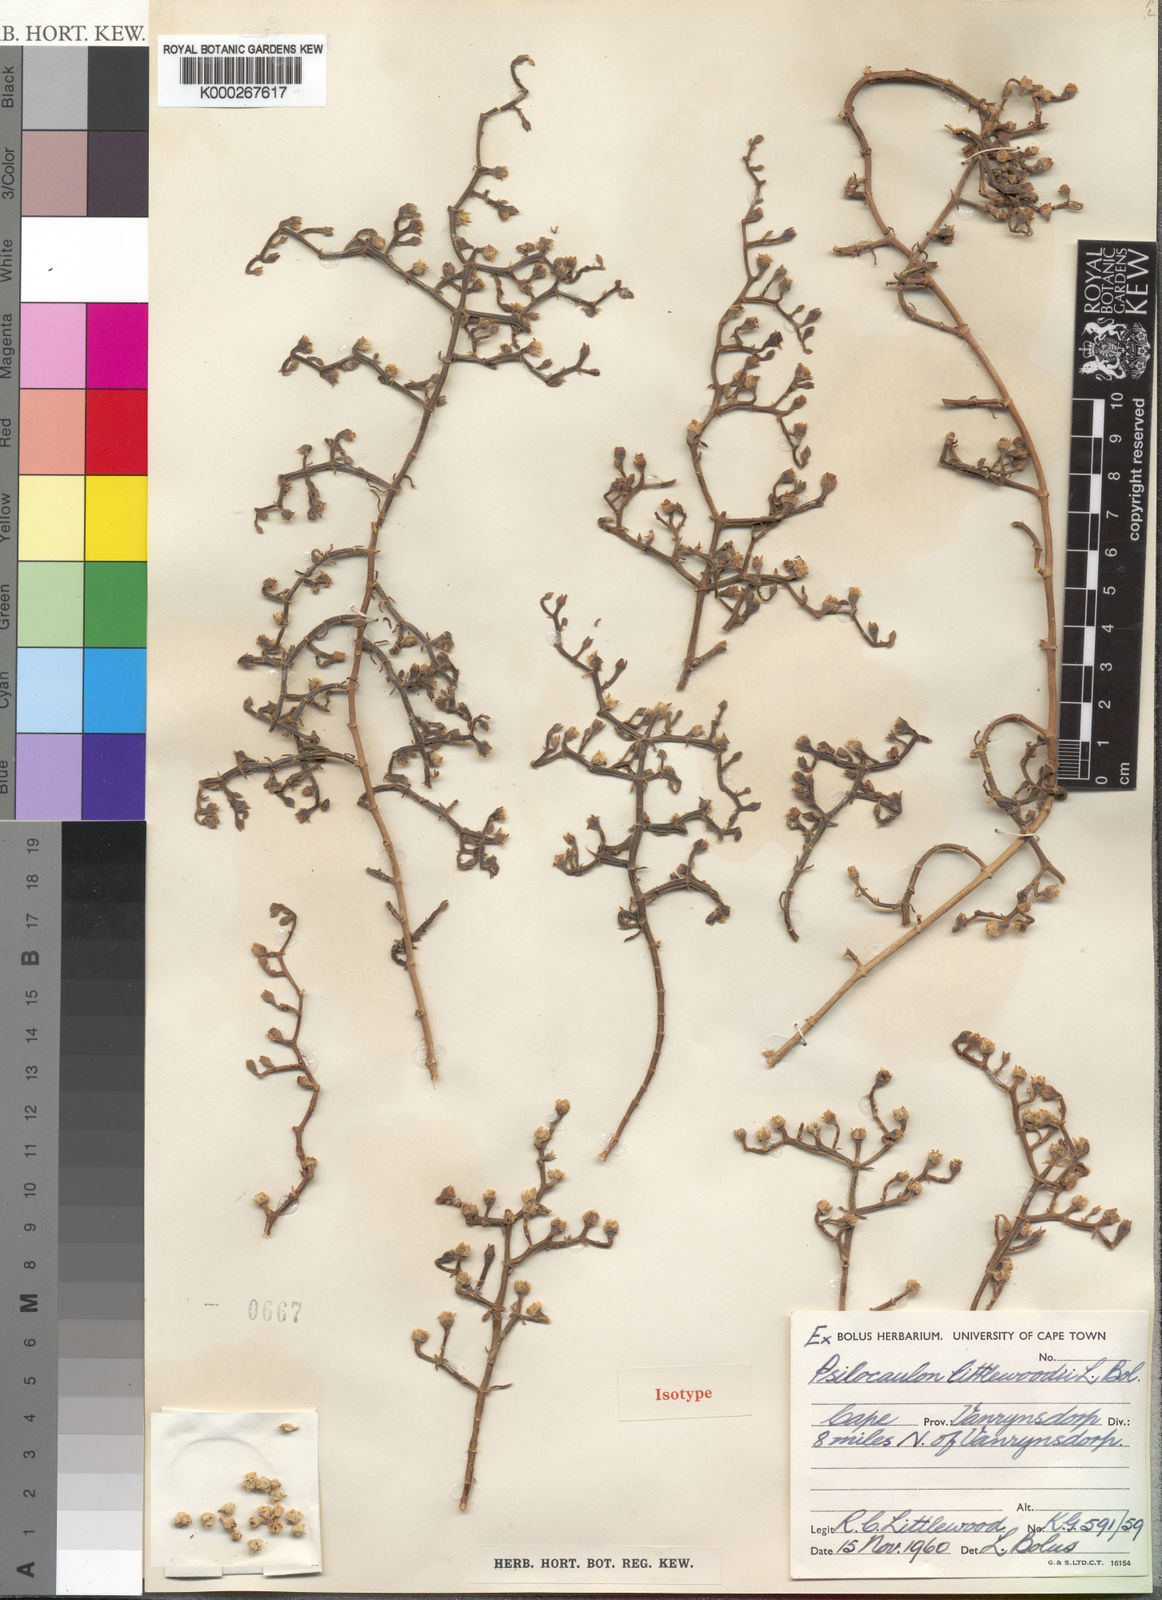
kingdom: Plantae
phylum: Tracheophyta
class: Magnoliopsida
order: Caryophyllales
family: Aizoaceae
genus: Mesembryanthemum
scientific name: Mesembryanthemum dinteri
